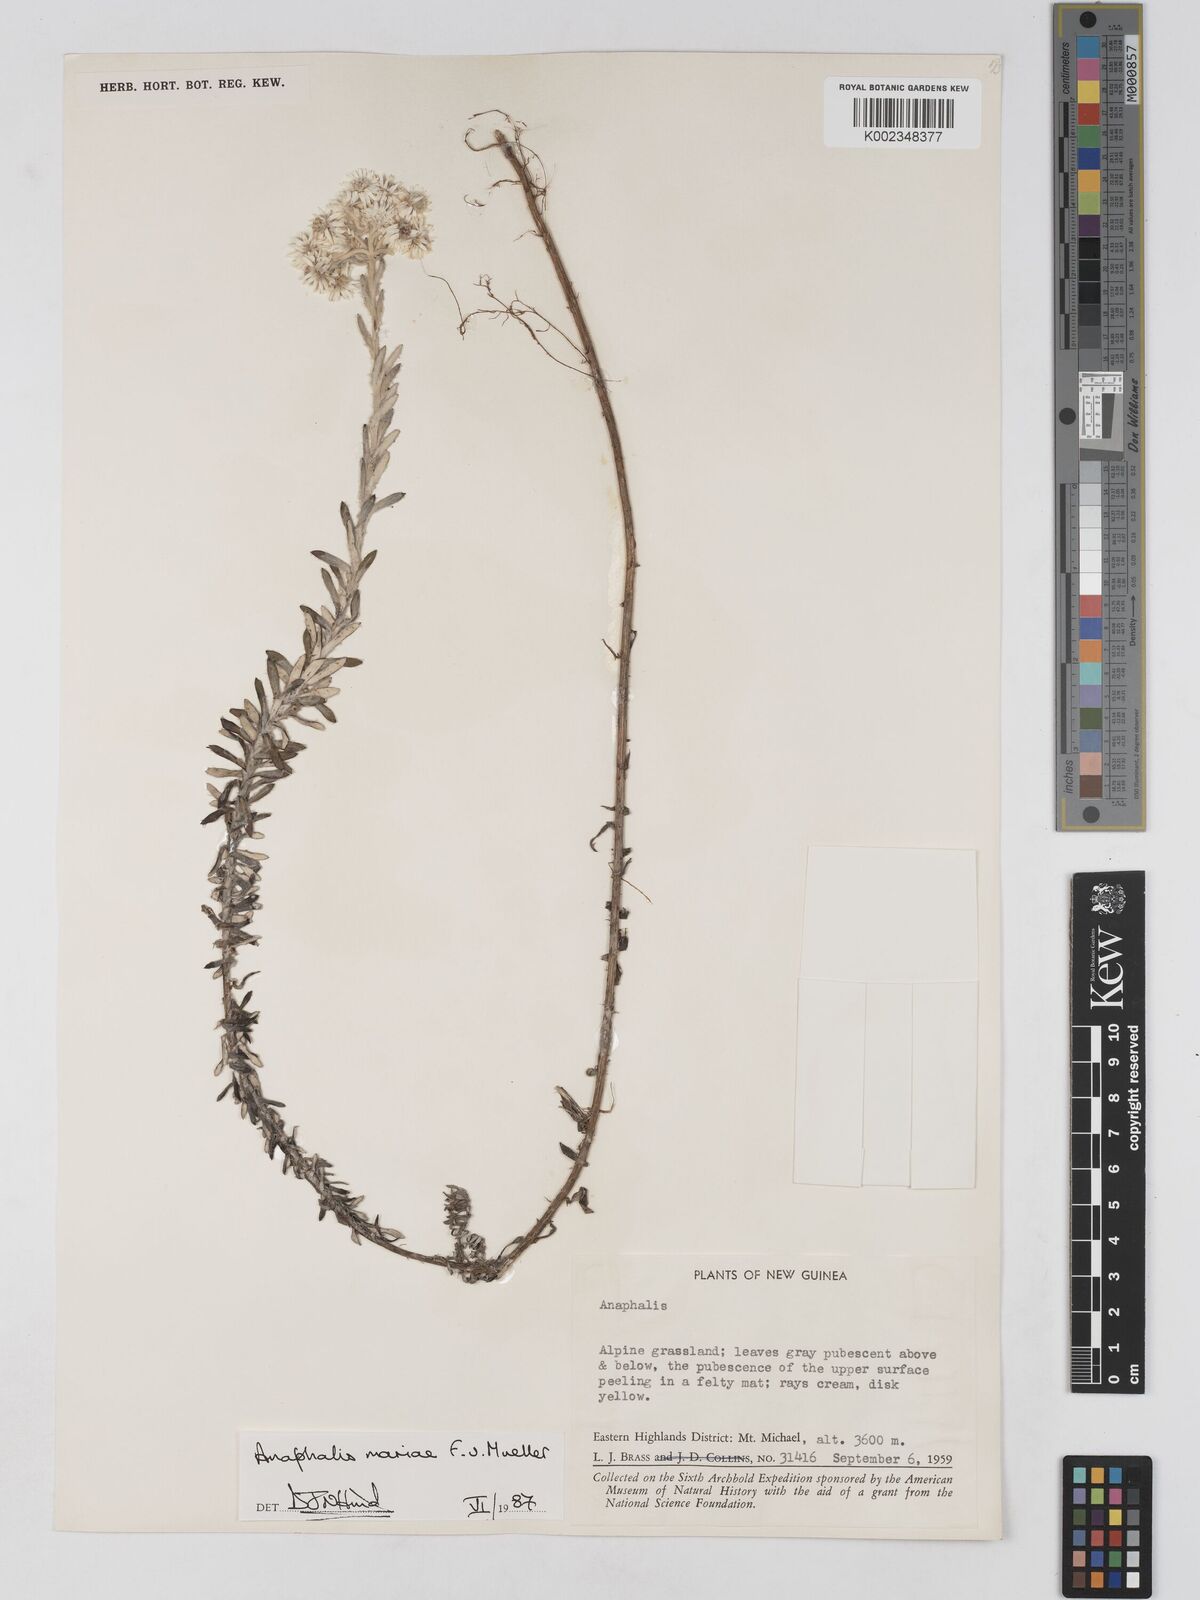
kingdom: Plantae
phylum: Tracheophyta
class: Magnoliopsida
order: Asterales
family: Asteraceae
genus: Anaphalioides
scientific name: Anaphalioides mariae
